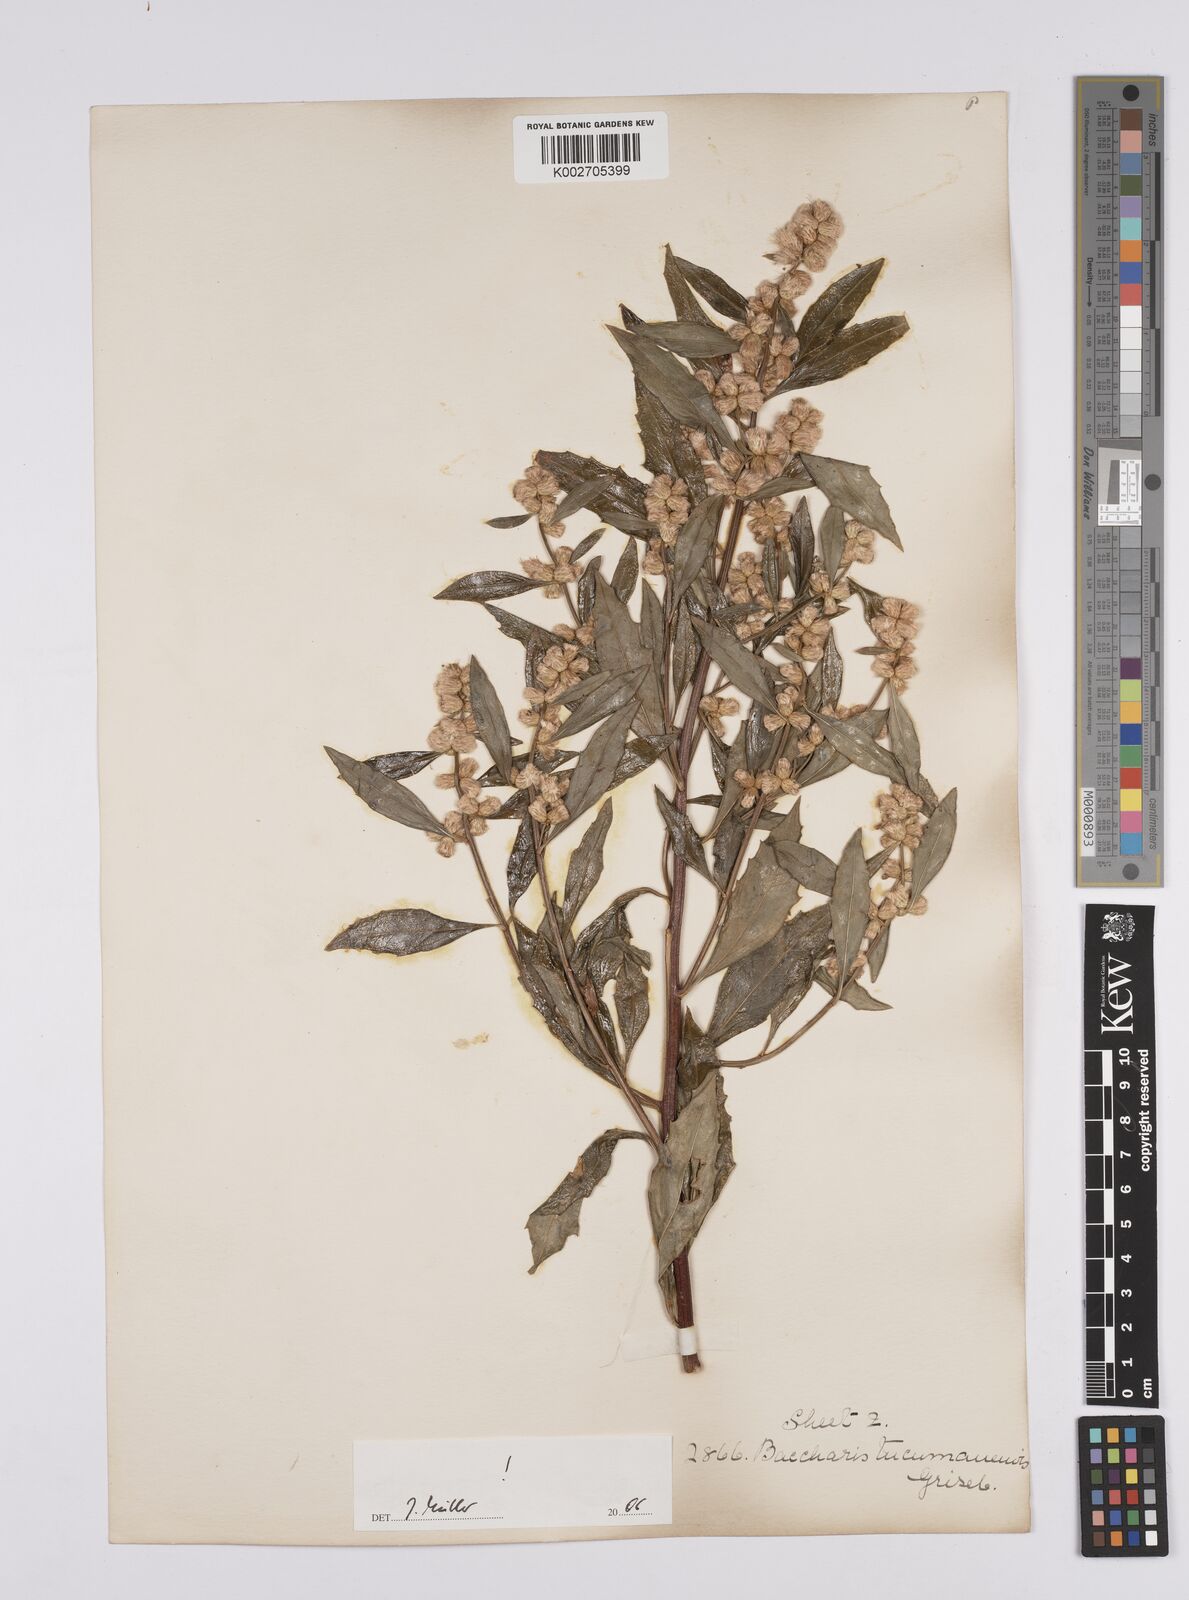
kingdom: Plantae
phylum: Tracheophyta
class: Magnoliopsida
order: Asterales
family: Asteraceae
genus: Baccharis
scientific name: Baccharis tucumanensis
